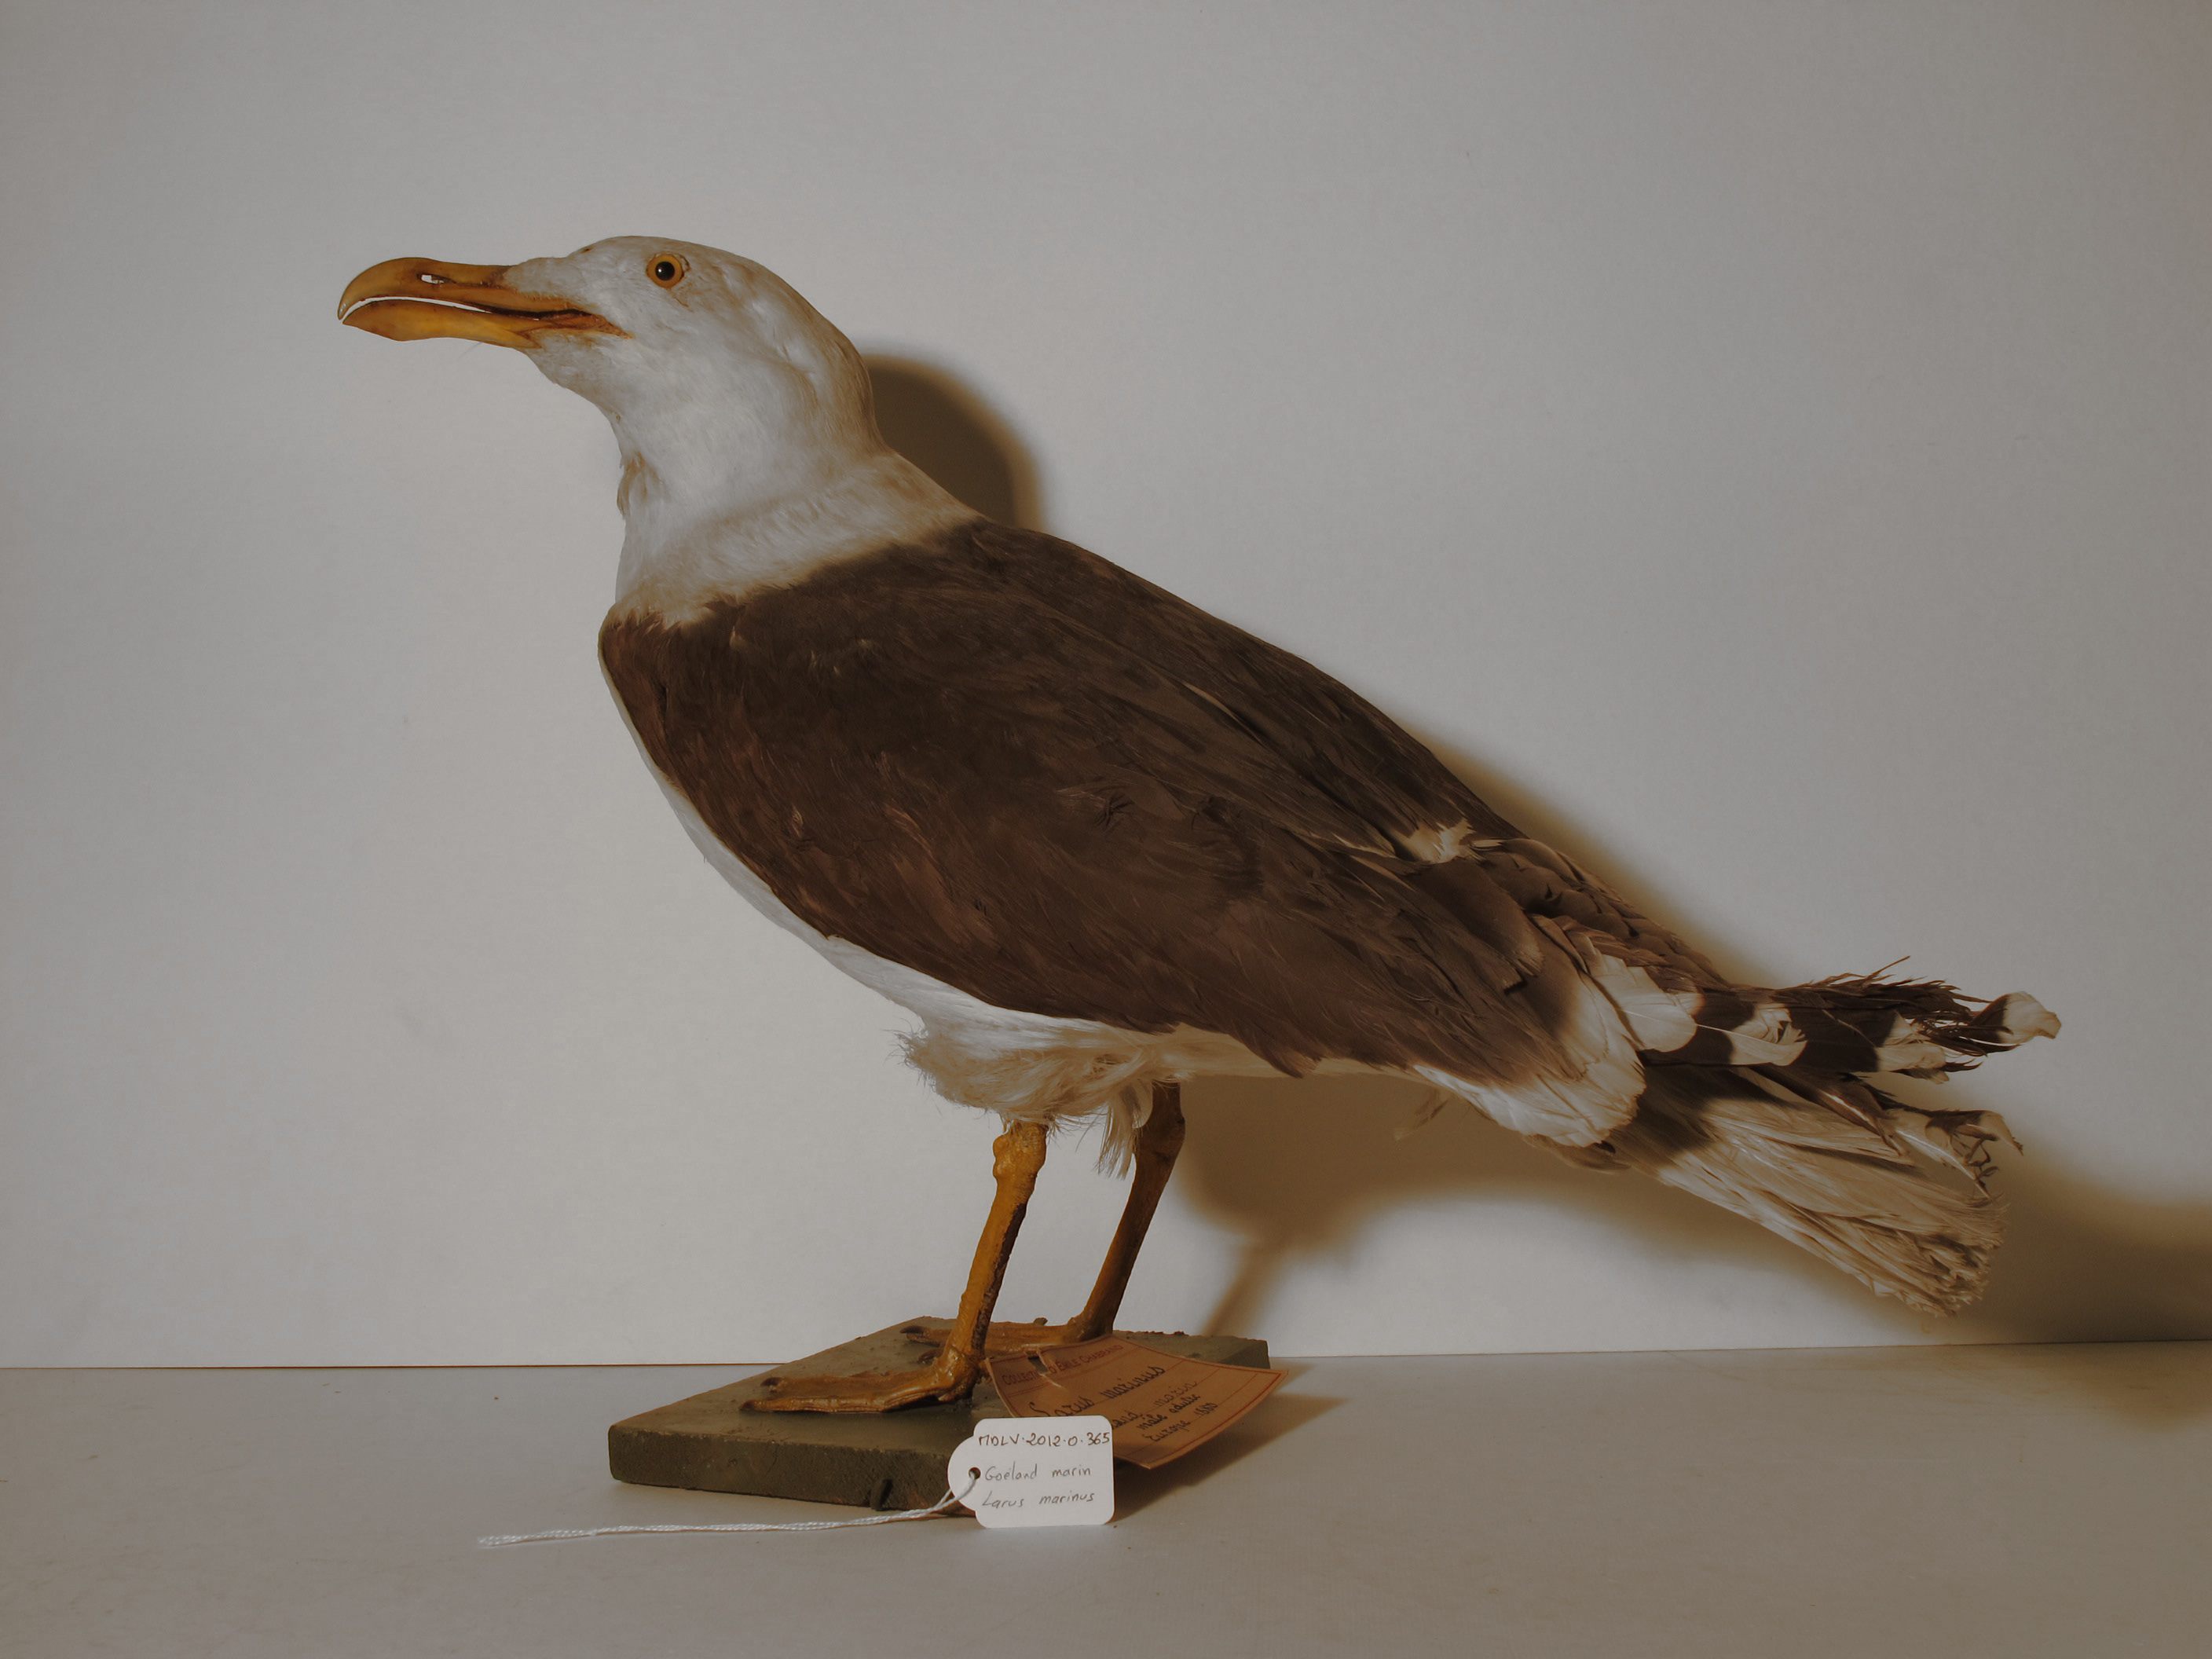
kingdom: Animalia
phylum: Chordata
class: Aves
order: Charadriiformes
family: Laridae
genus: Larus
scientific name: Larus marinus
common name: Great Black-backed Gull
